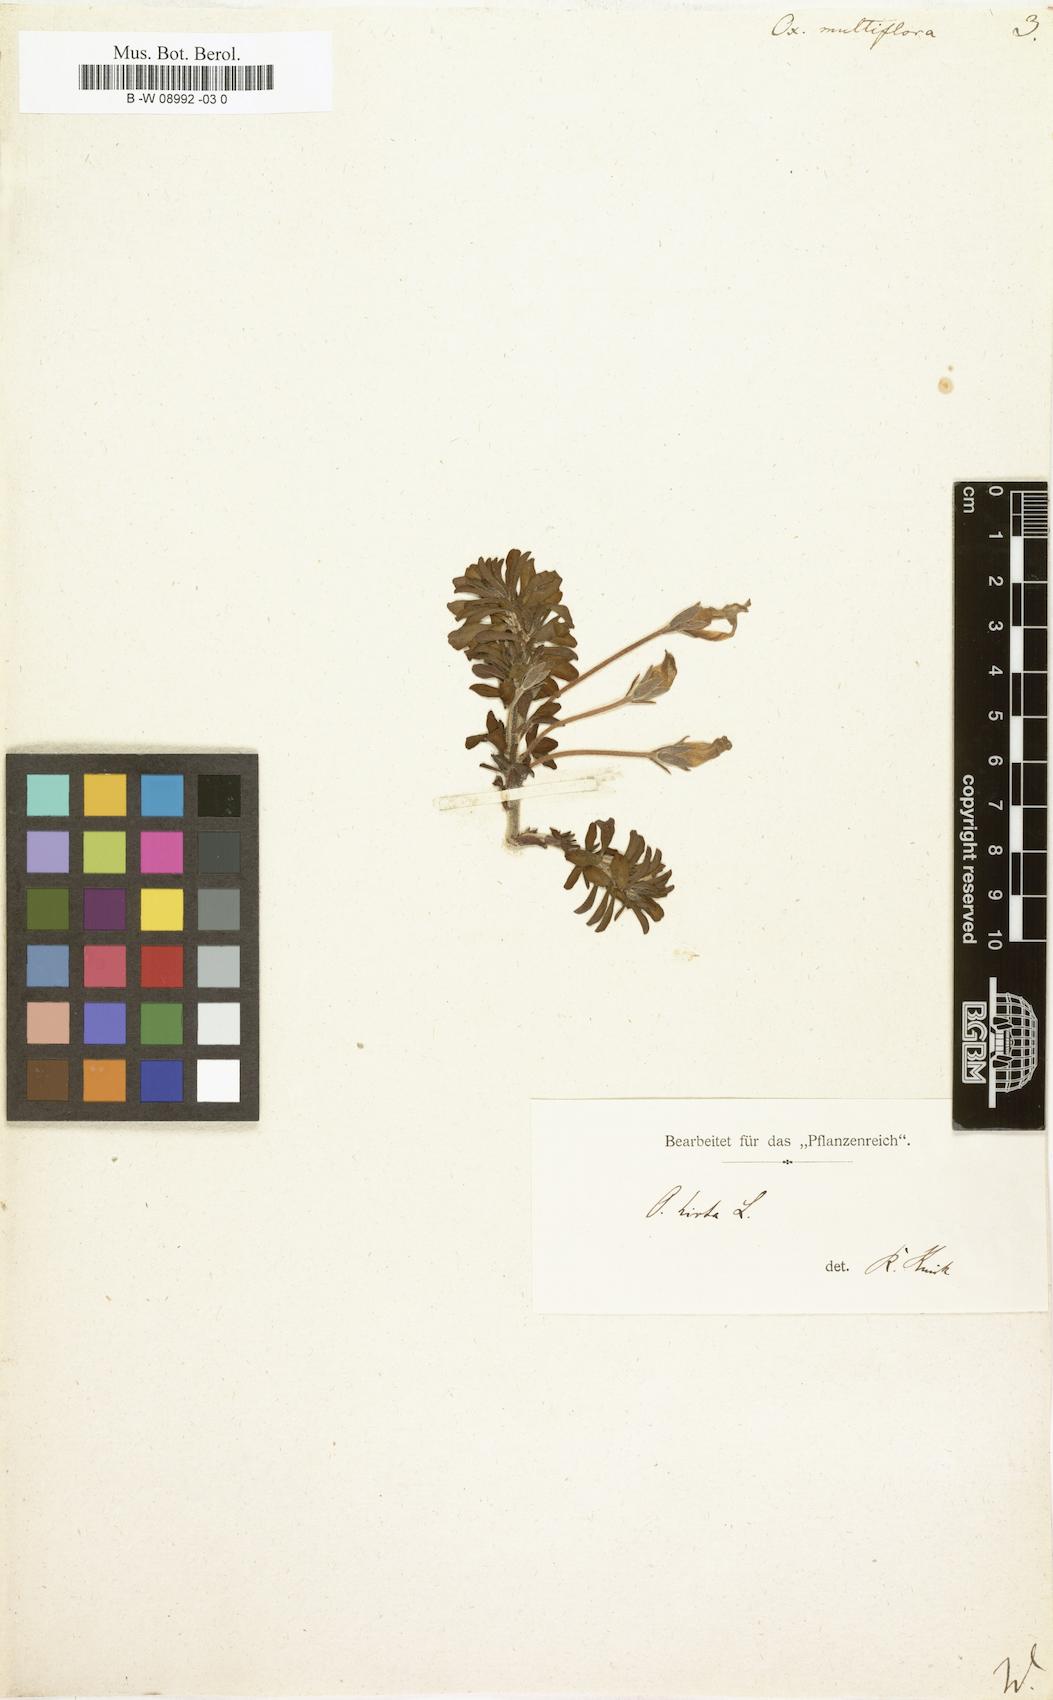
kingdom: Plantae
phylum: Tracheophyta
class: Magnoliopsida
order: Oxalidales
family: Oxalidaceae
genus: Oxalis
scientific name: Oxalis hirta
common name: Tropical woodsorrel
